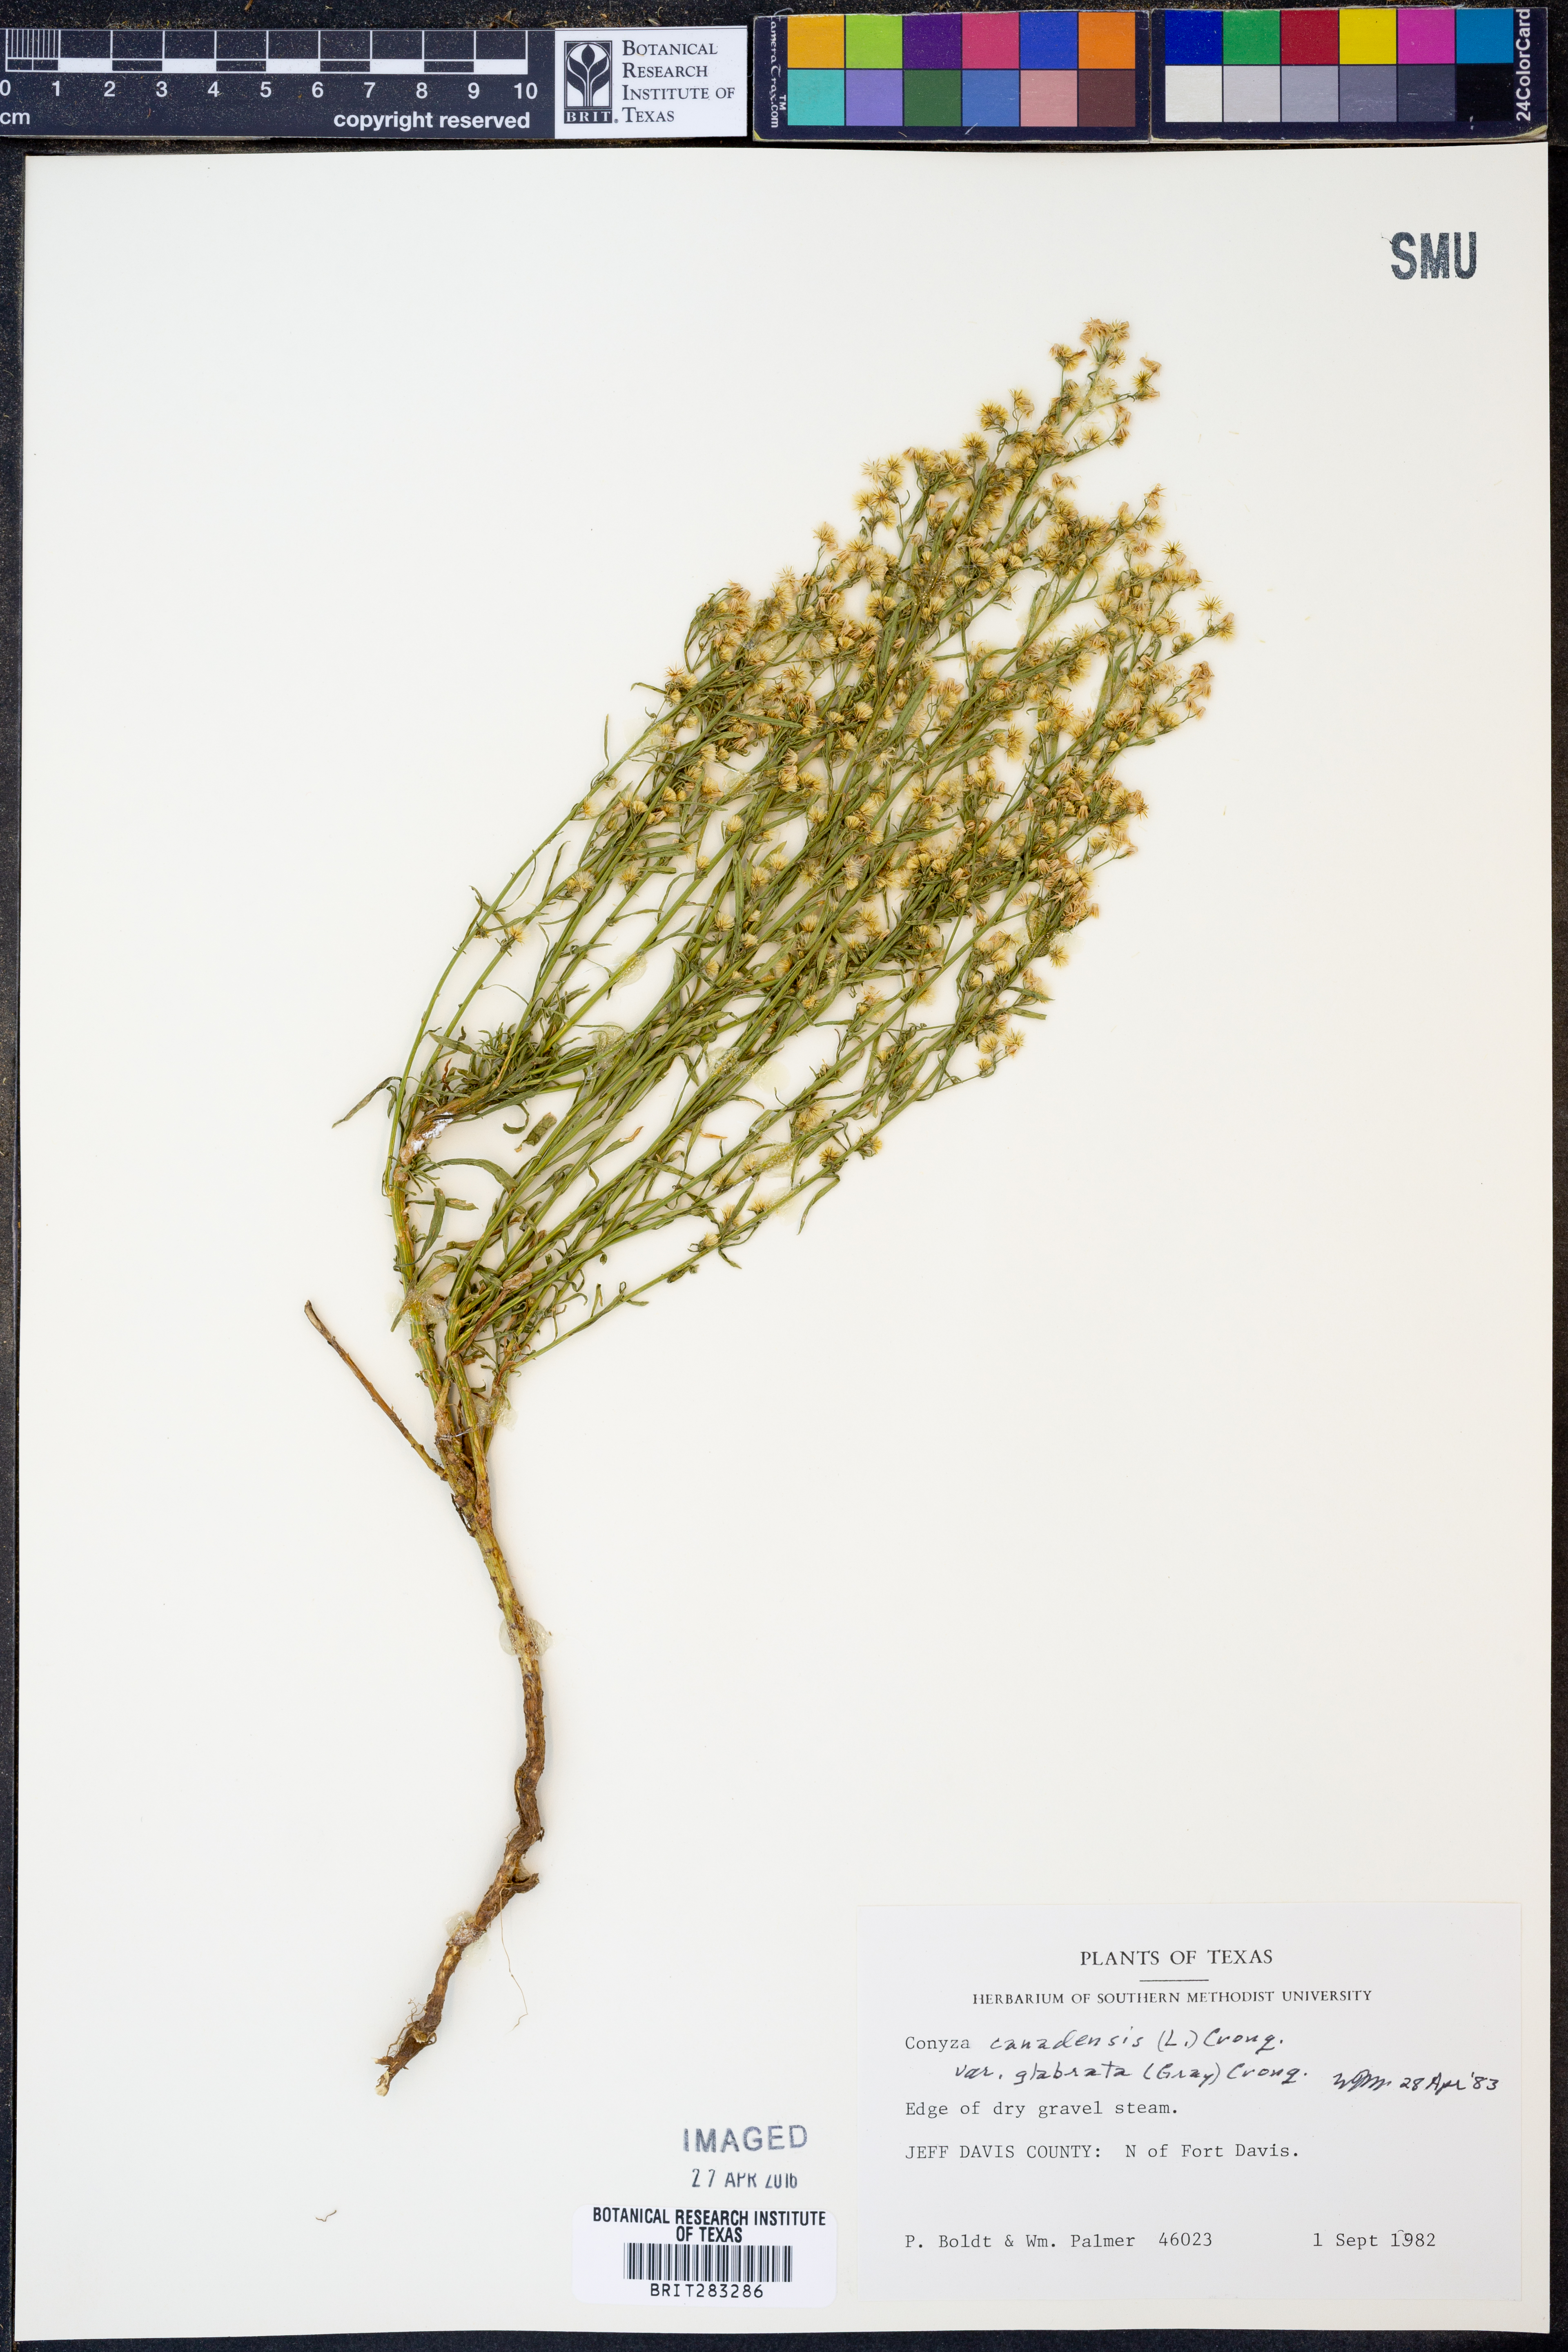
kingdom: Plantae
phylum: Tracheophyta
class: Magnoliopsida
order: Asterales
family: Asteraceae
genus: Erigeron
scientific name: Erigeron canadensis
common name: Canadian fleabane
